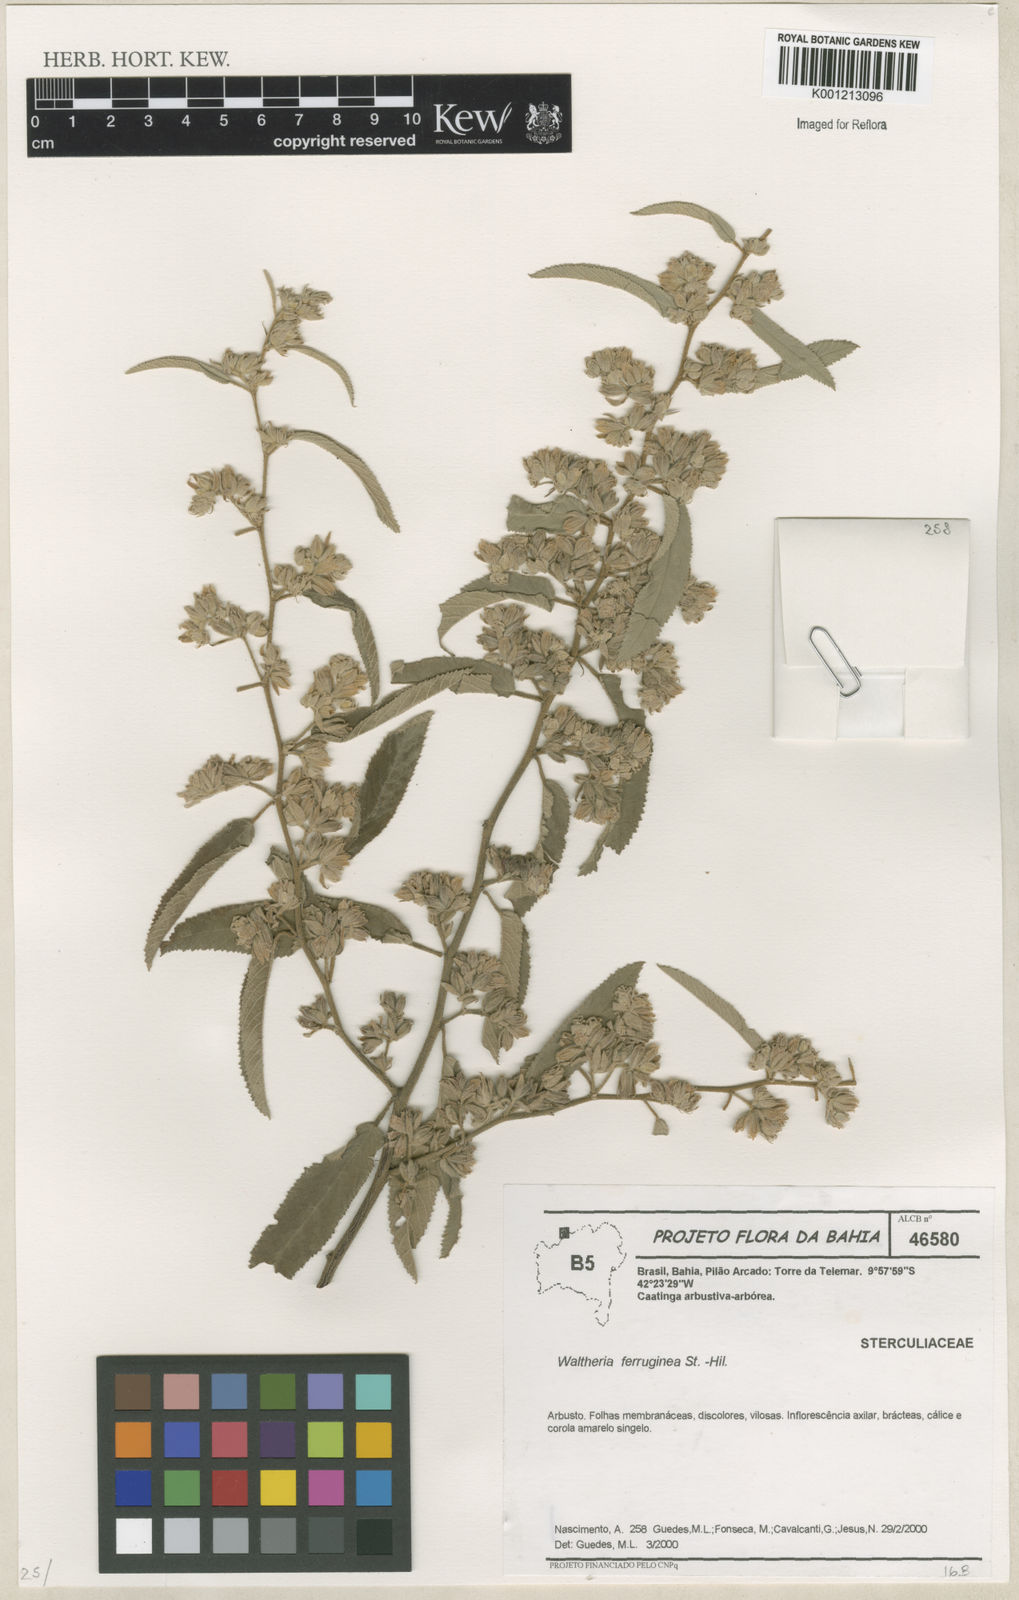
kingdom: Plantae
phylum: Tracheophyta
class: Magnoliopsida
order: Malvales
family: Malvaceae
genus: Waltheria
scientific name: Waltheria ferruginea
